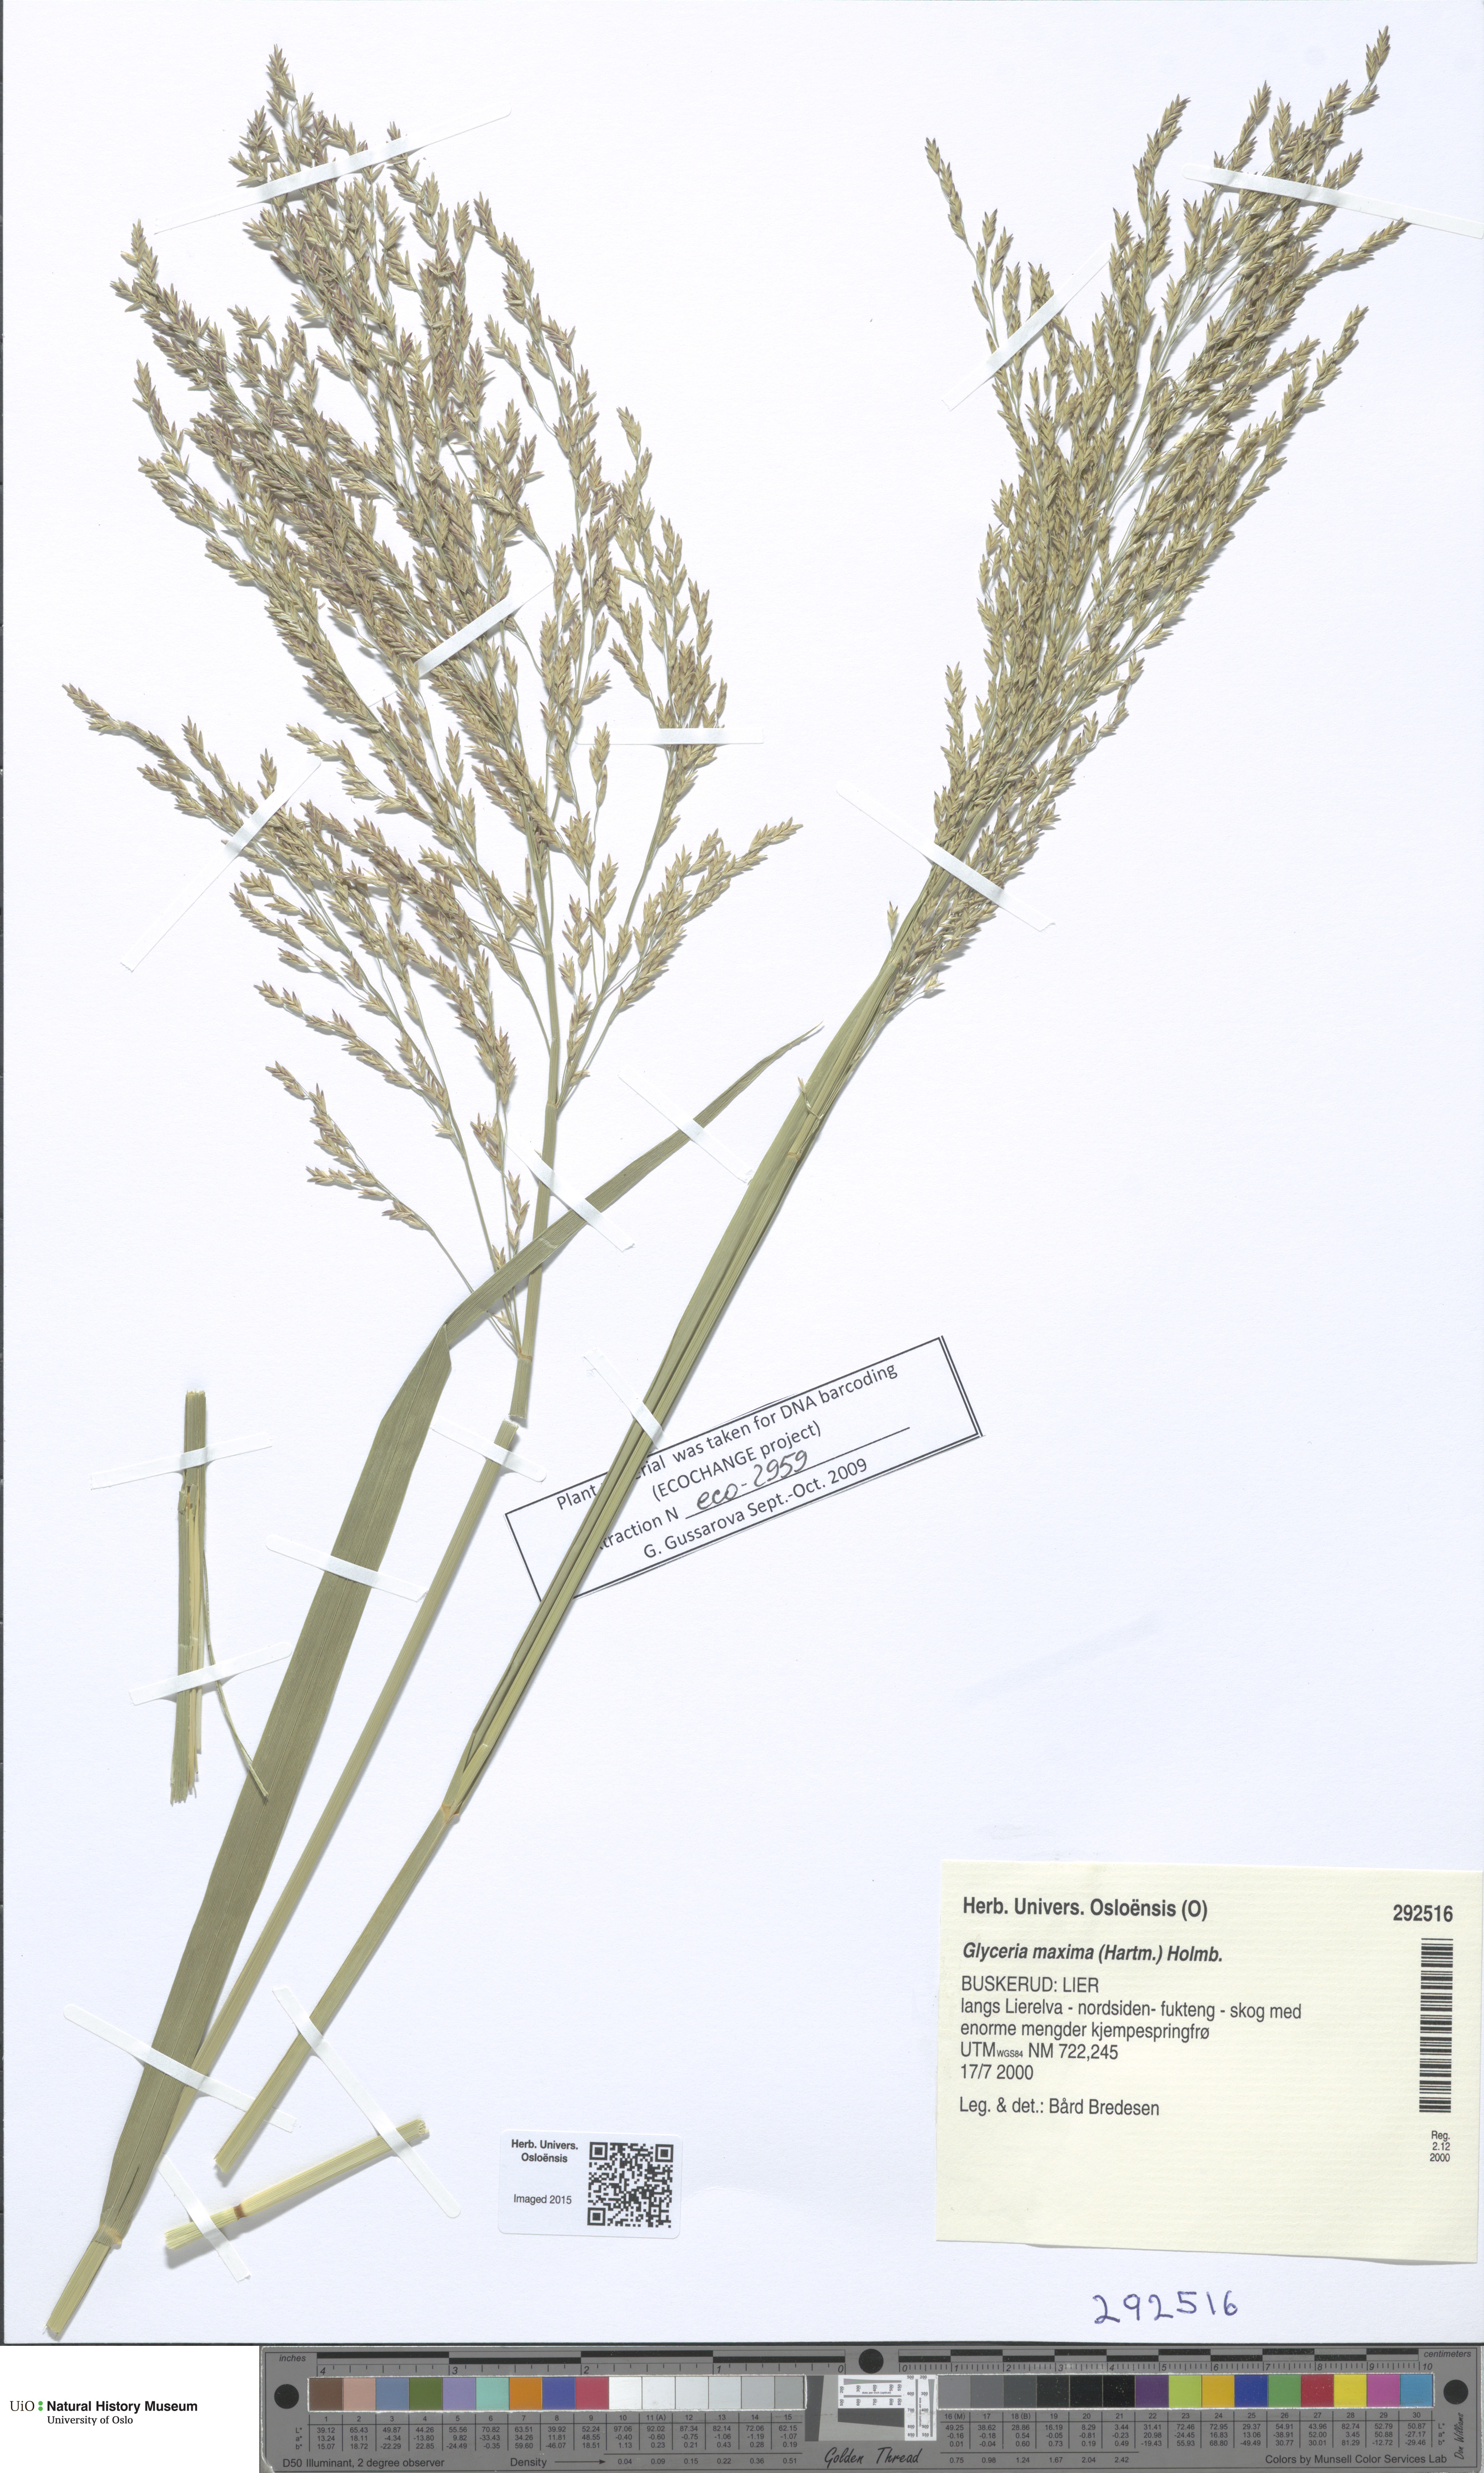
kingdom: Plantae
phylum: Tracheophyta
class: Liliopsida
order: Poales
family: Poaceae
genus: Glyceria
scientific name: Glyceria maxima
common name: Reed mannagrass
